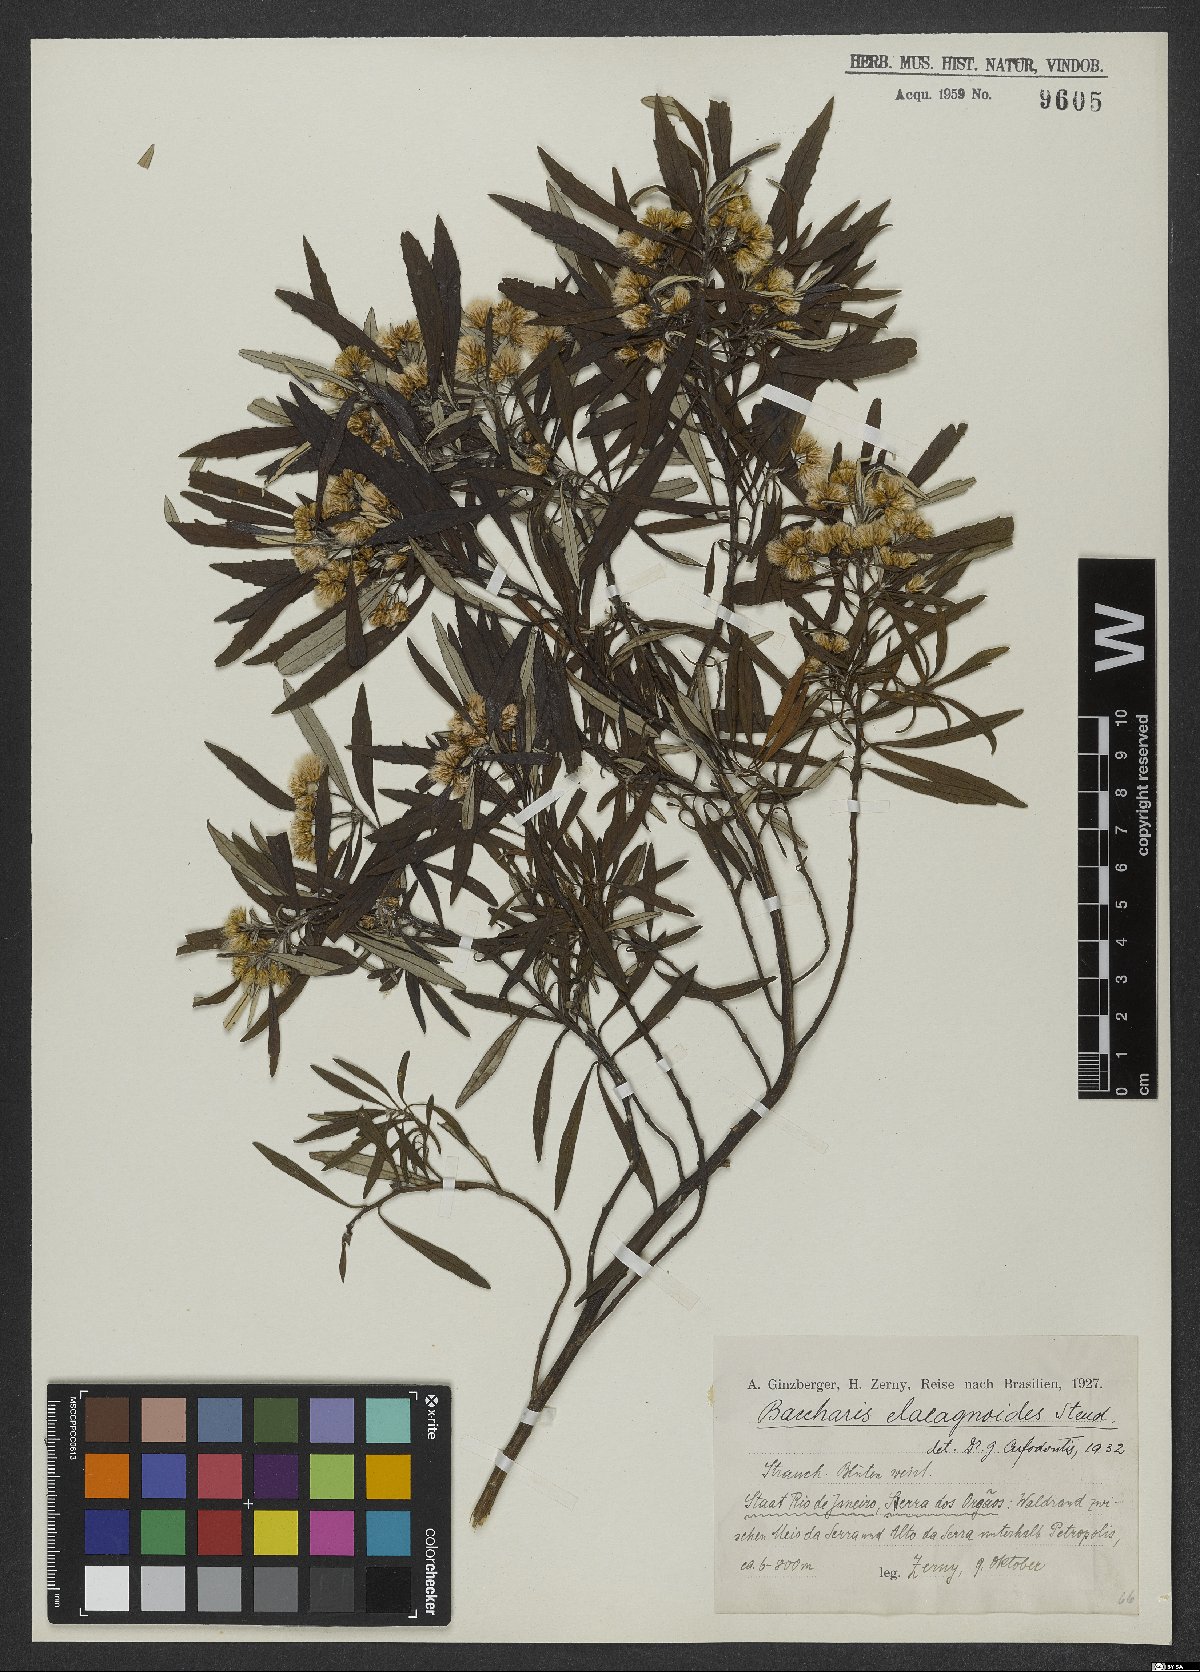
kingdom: Plantae
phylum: Tracheophyta
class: Magnoliopsida
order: Asterales
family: Asteraceae
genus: Baccharis
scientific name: Baccharis montana
